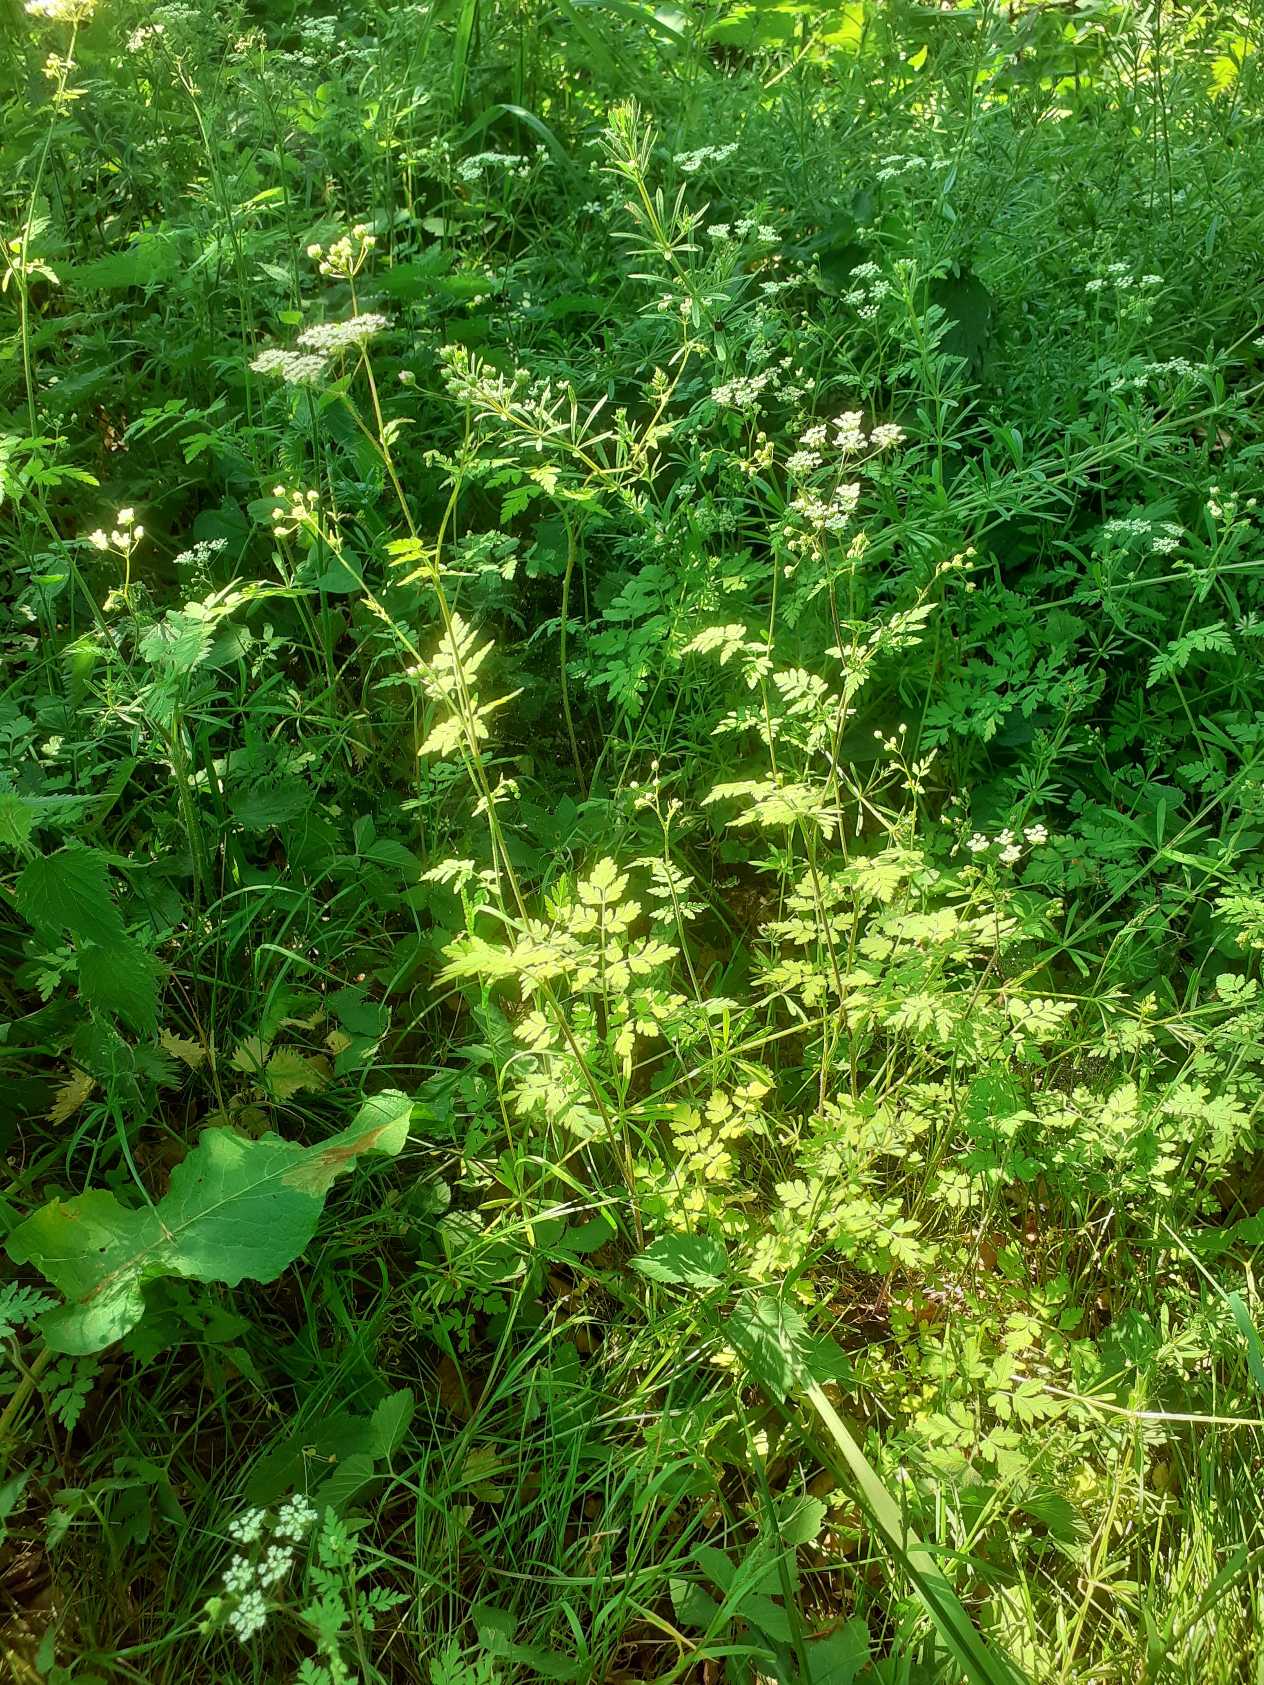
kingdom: Plantae
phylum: Tracheophyta
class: Magnoliopsida
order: Apiales
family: Apiaceae
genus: Chaerophyllum
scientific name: Chaerophyllum temulum
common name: Almindelig hulsvøb
